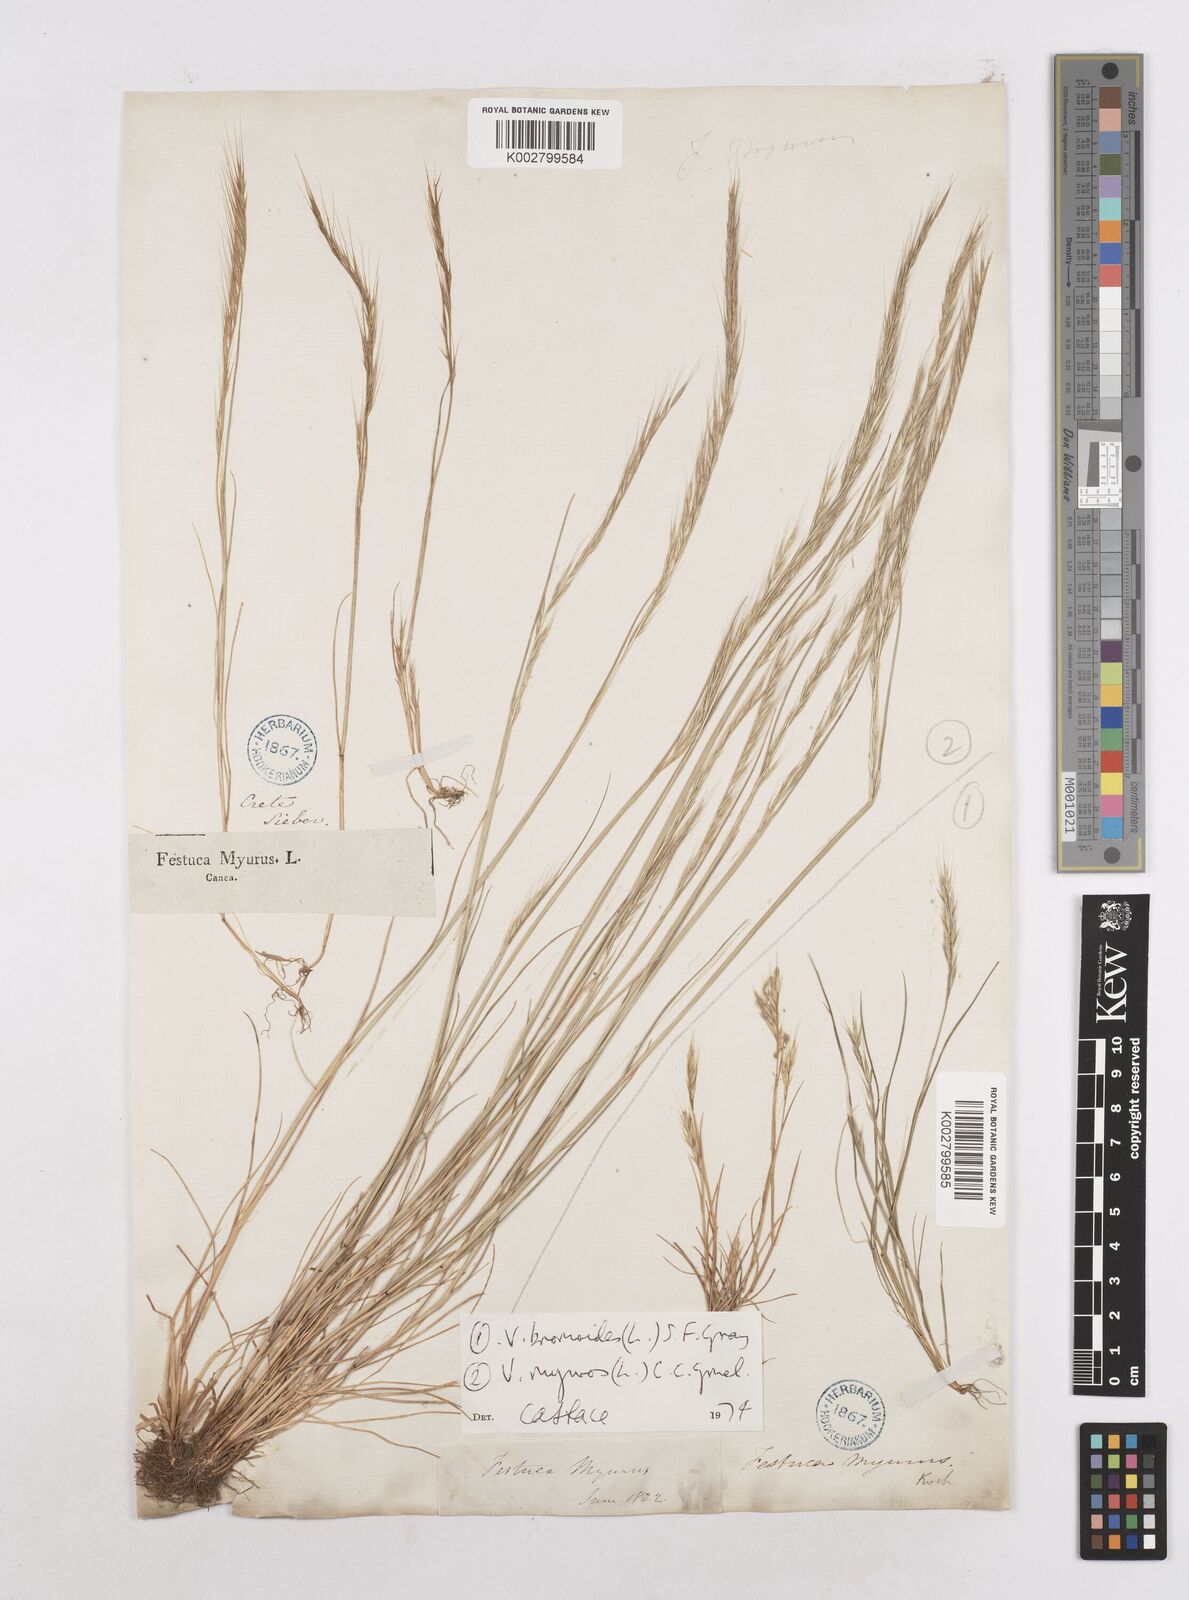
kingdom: Plantae
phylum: Tracheophyta
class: Liliopsida
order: Poales
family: Poaceae
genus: Festuca
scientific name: Festuca myuros
